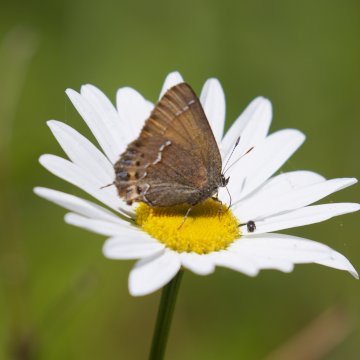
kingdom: Animalia
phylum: Arthropoda
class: Insecta
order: Lepidoptera
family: Lycaenidae
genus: Mitoura
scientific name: Mitoura gryneus
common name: Juniper Hairstreak
